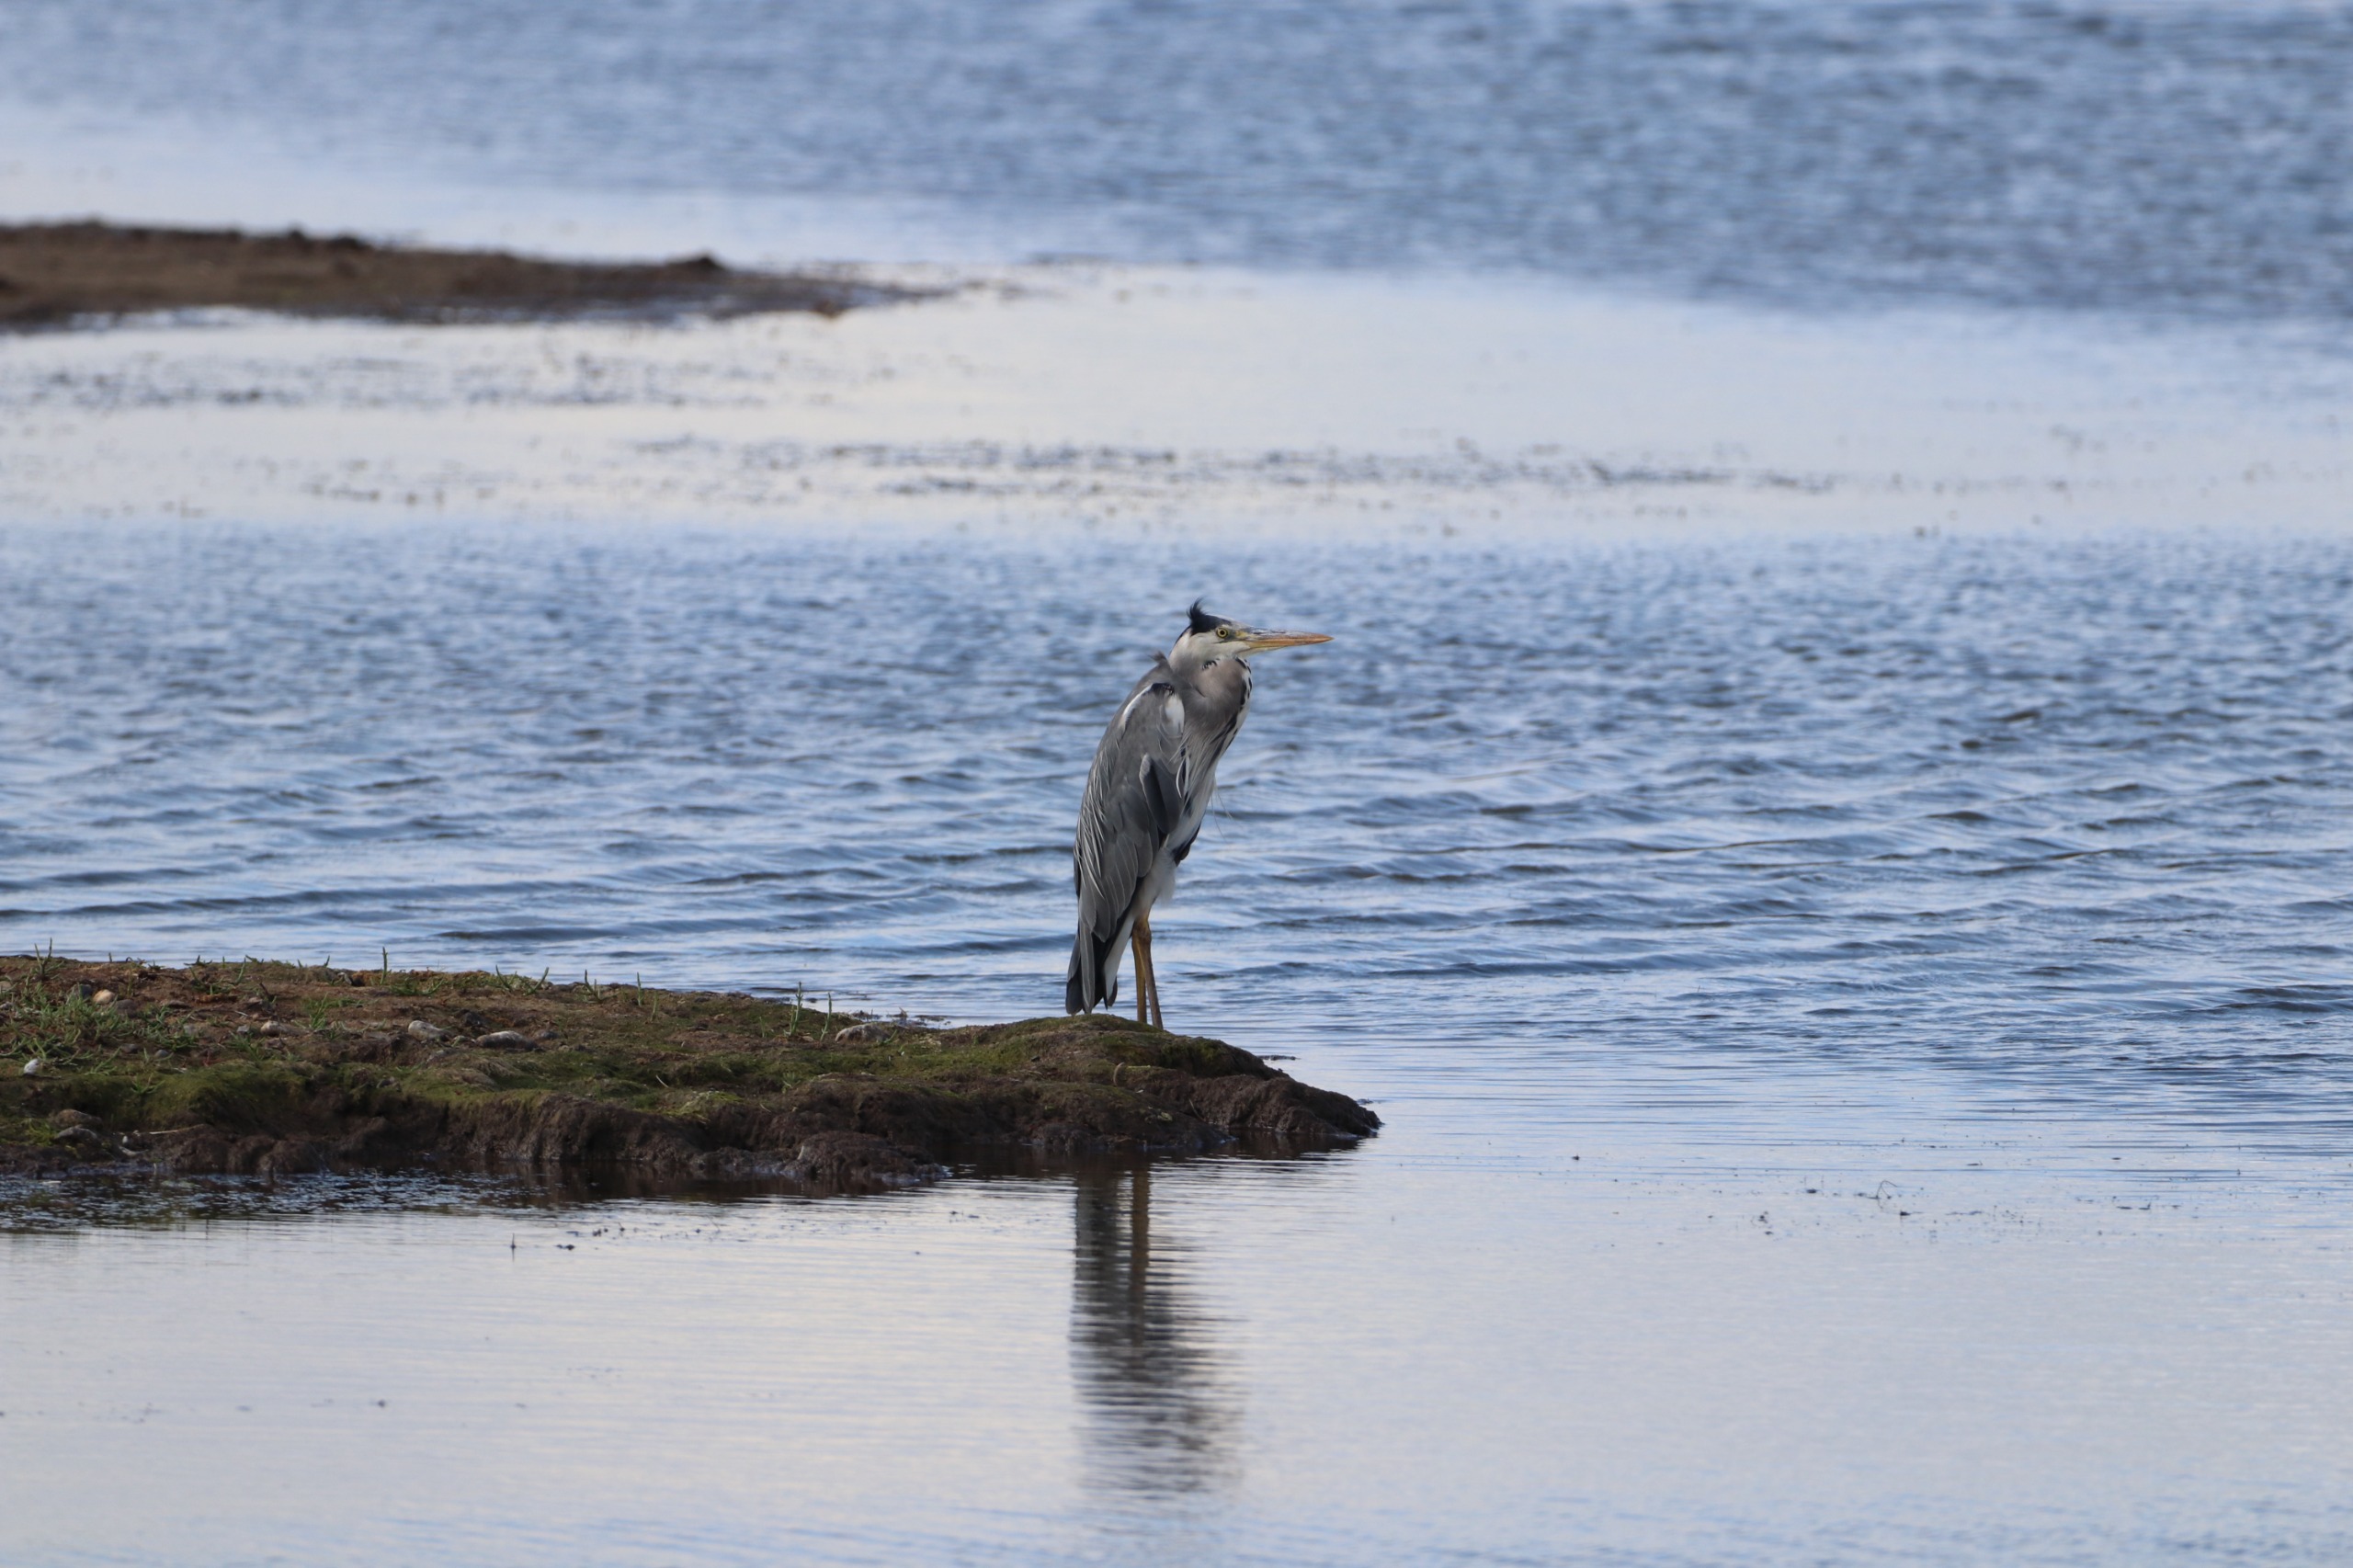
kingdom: Animalia
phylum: Chordata
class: Aves
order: Pelecaniformes
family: Ardeidae
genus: Ardea
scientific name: Ardea cinerea
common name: Fiskehejre
